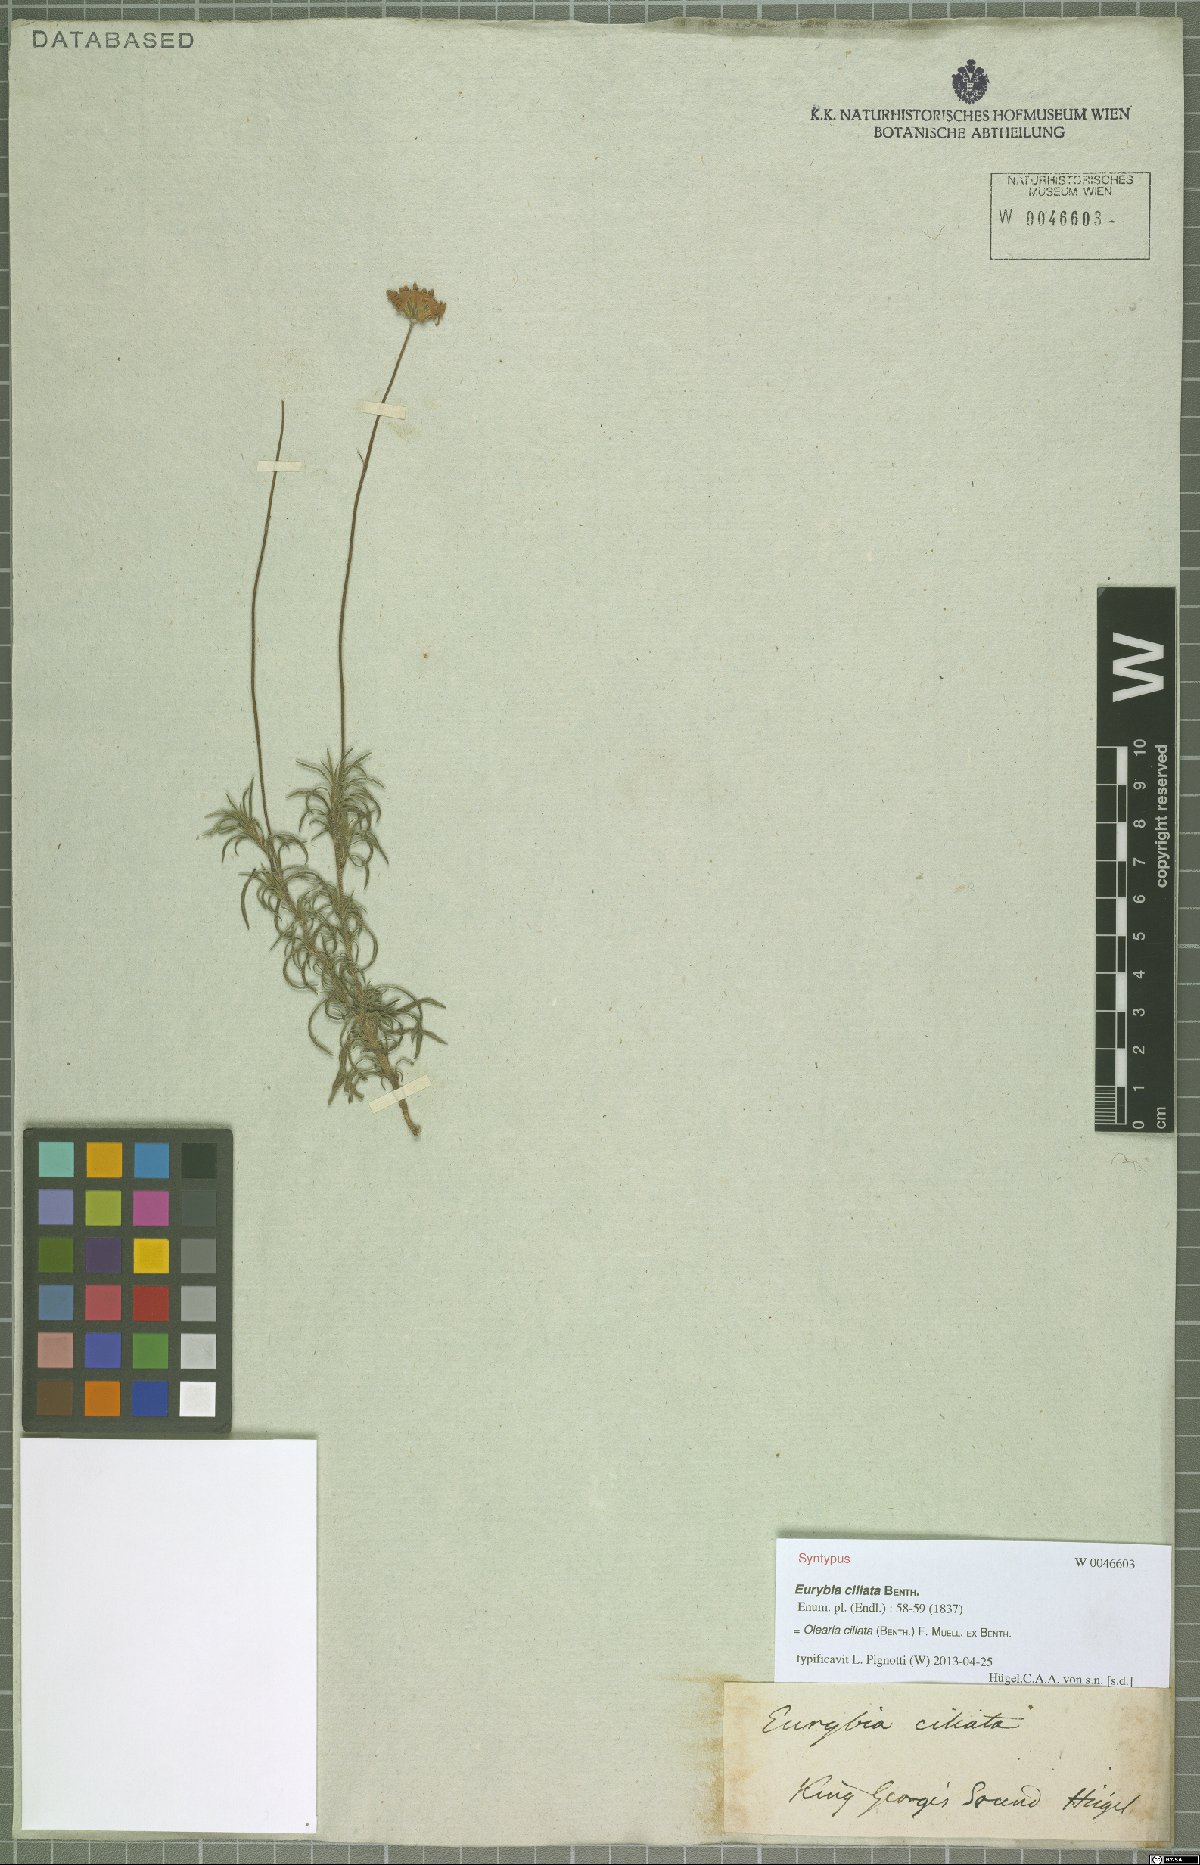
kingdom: Plantae
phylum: Tracheophyta
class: Magnoliopsida
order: Asterales
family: Asteraceae
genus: Vicinia
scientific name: Vicinia ciliata
